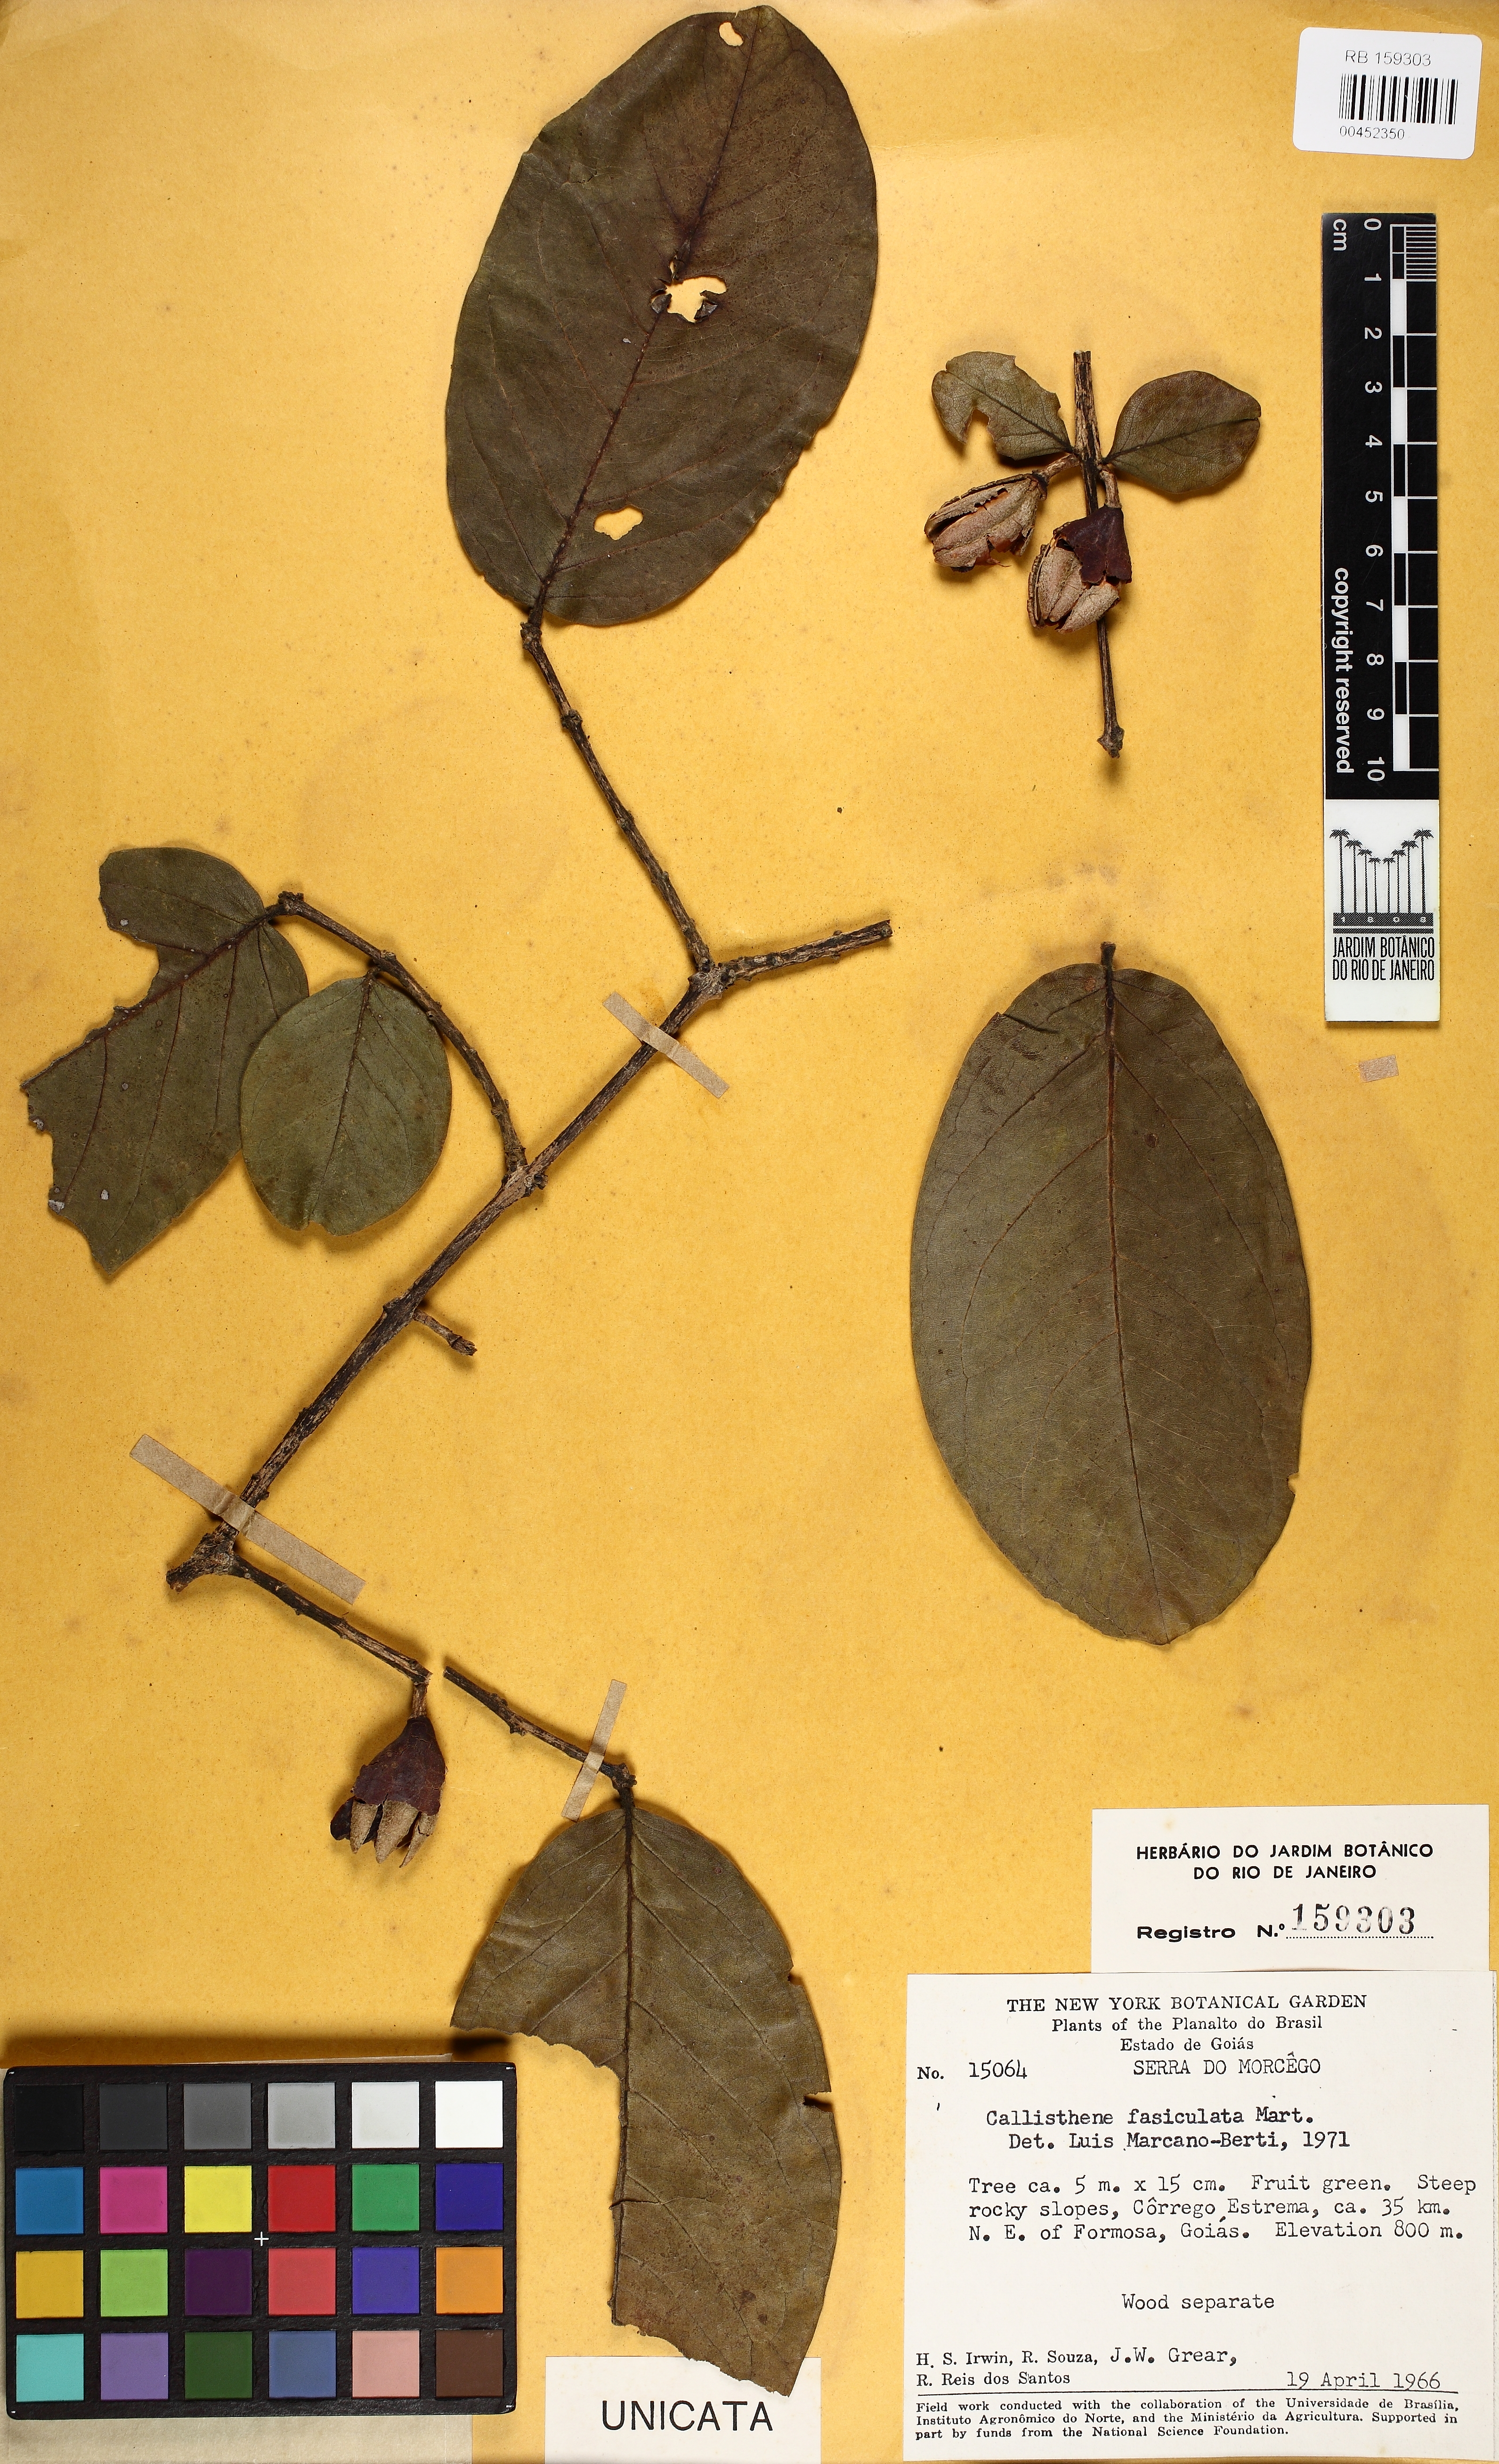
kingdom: Plantae
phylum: Tracheophyta
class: Magnoliopsida
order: Myrtales
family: Vochysiaceae
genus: Callisthene
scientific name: Callisthene fasciculata
